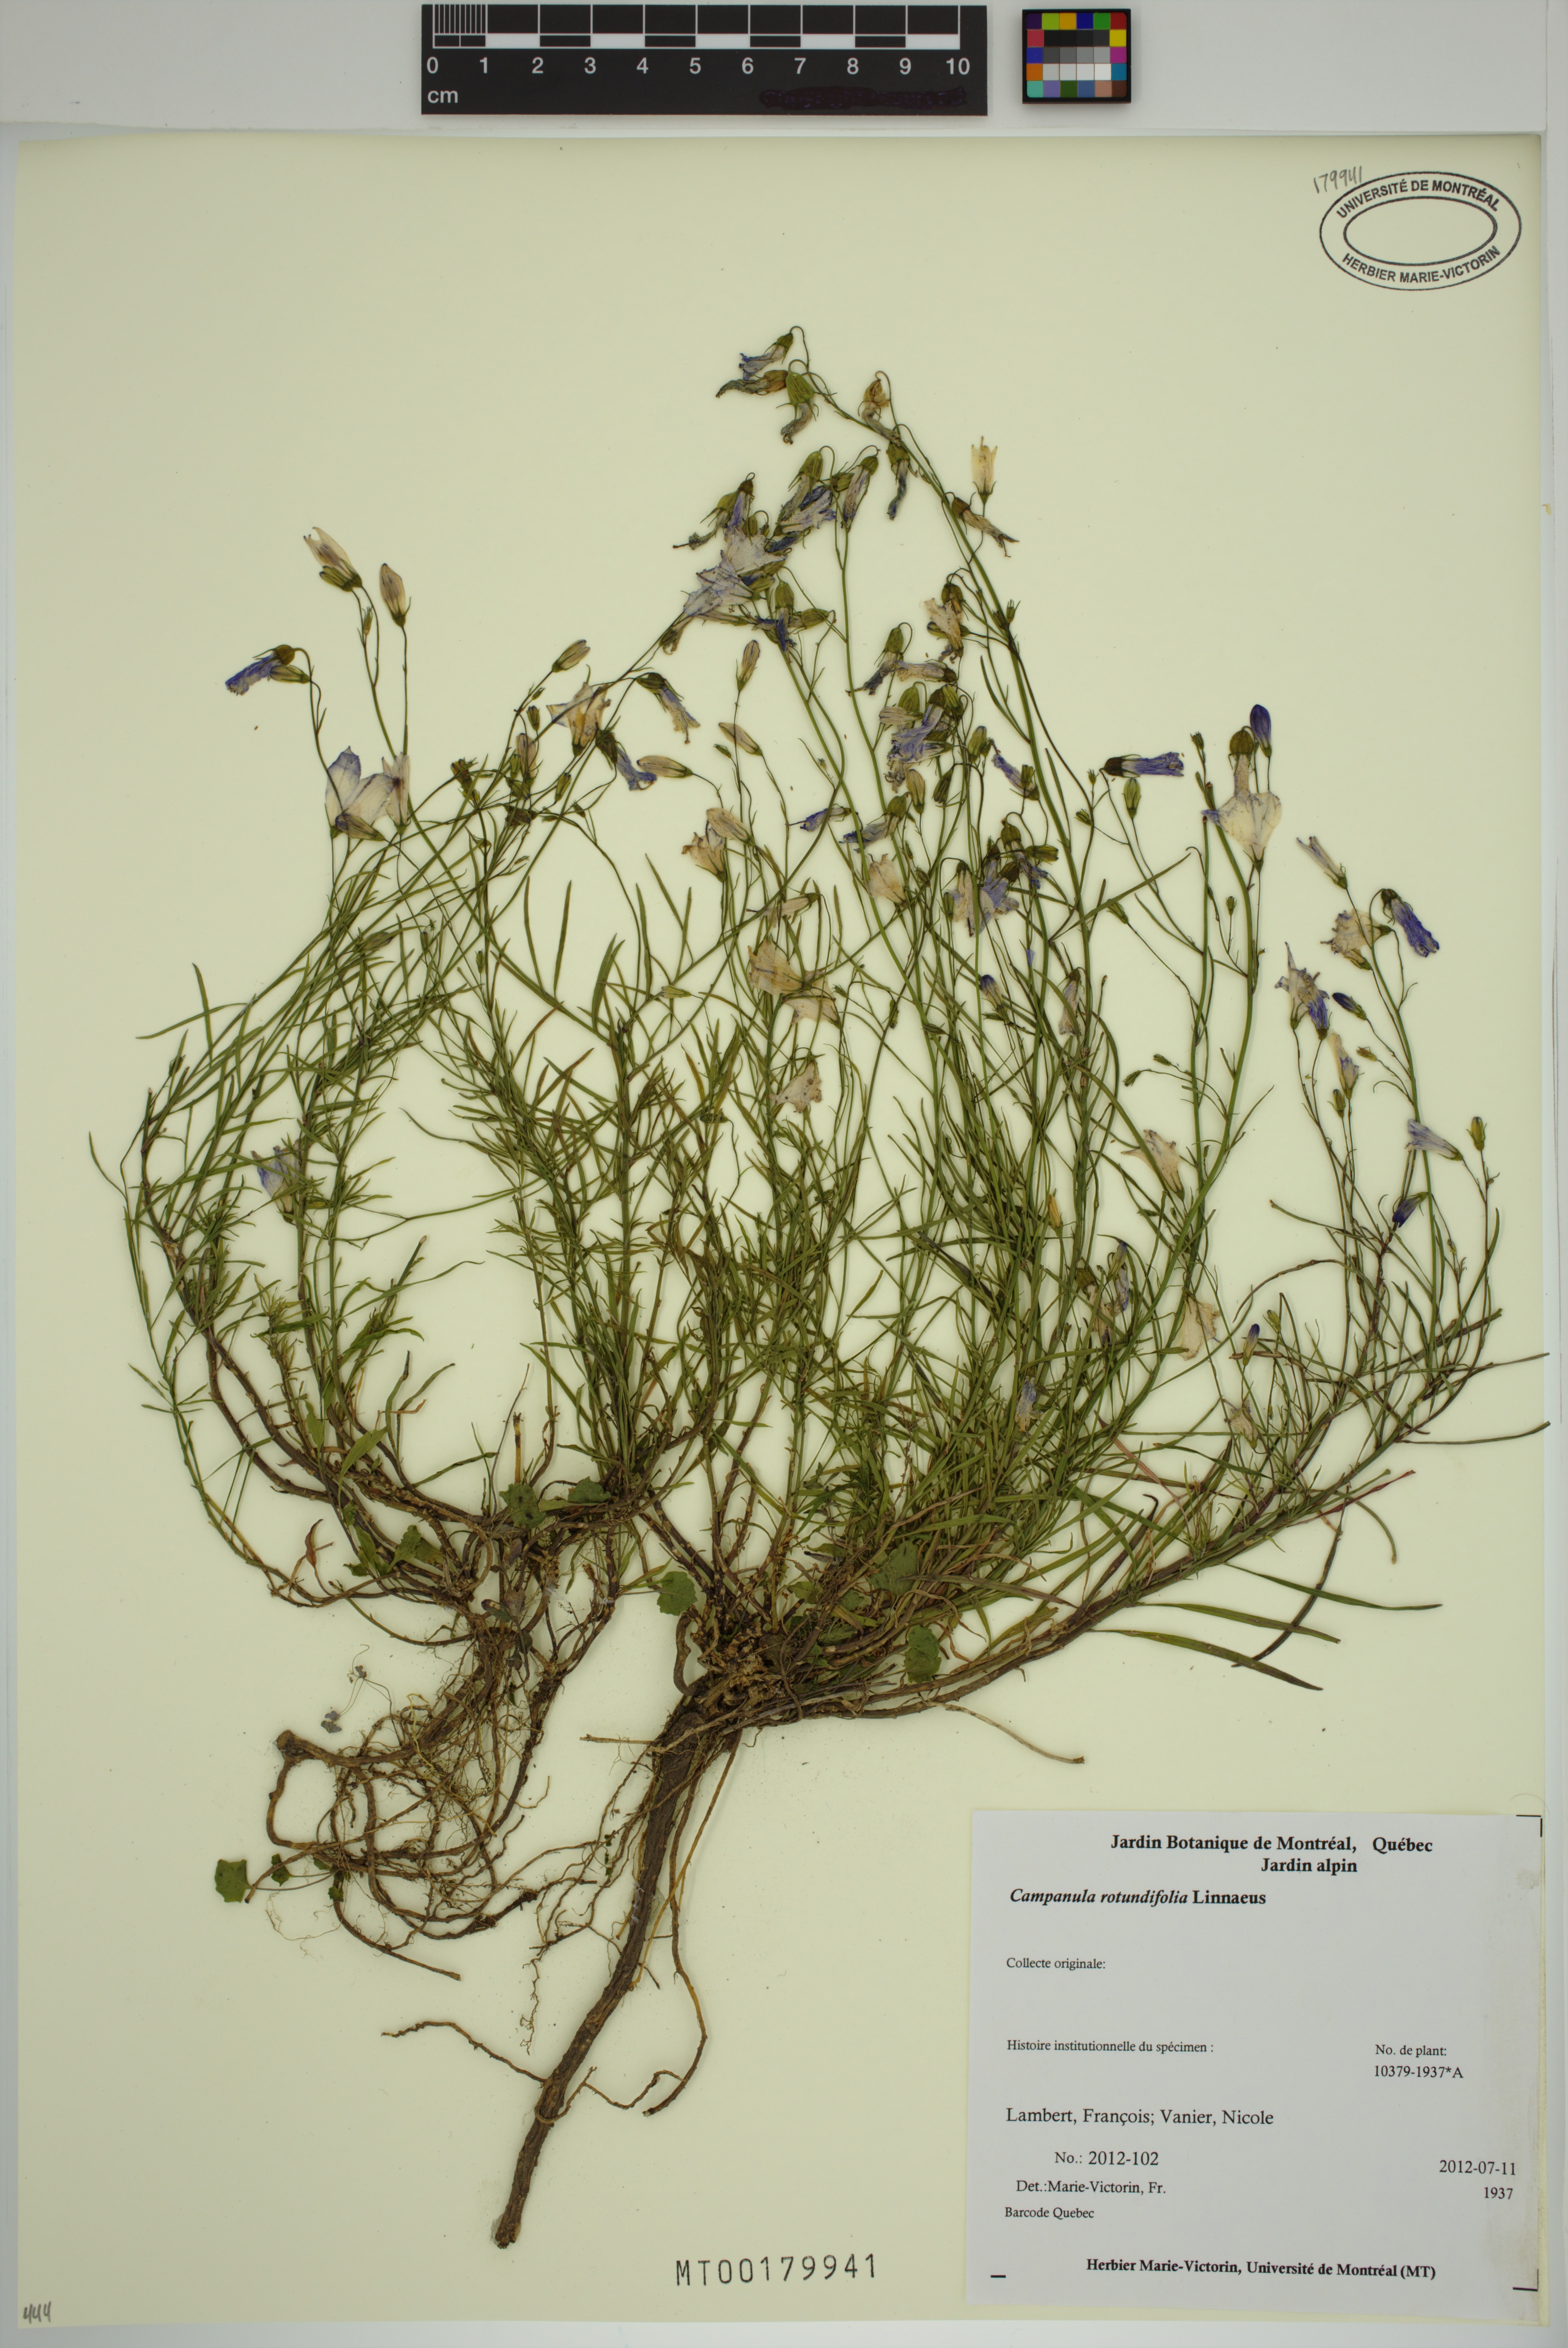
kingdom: Plantae
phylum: Tracheophyta
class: Magnoliopsida
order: Asterales
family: Campanulaceae
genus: Campanula
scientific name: Campanula rotundifolia
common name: Harebell
